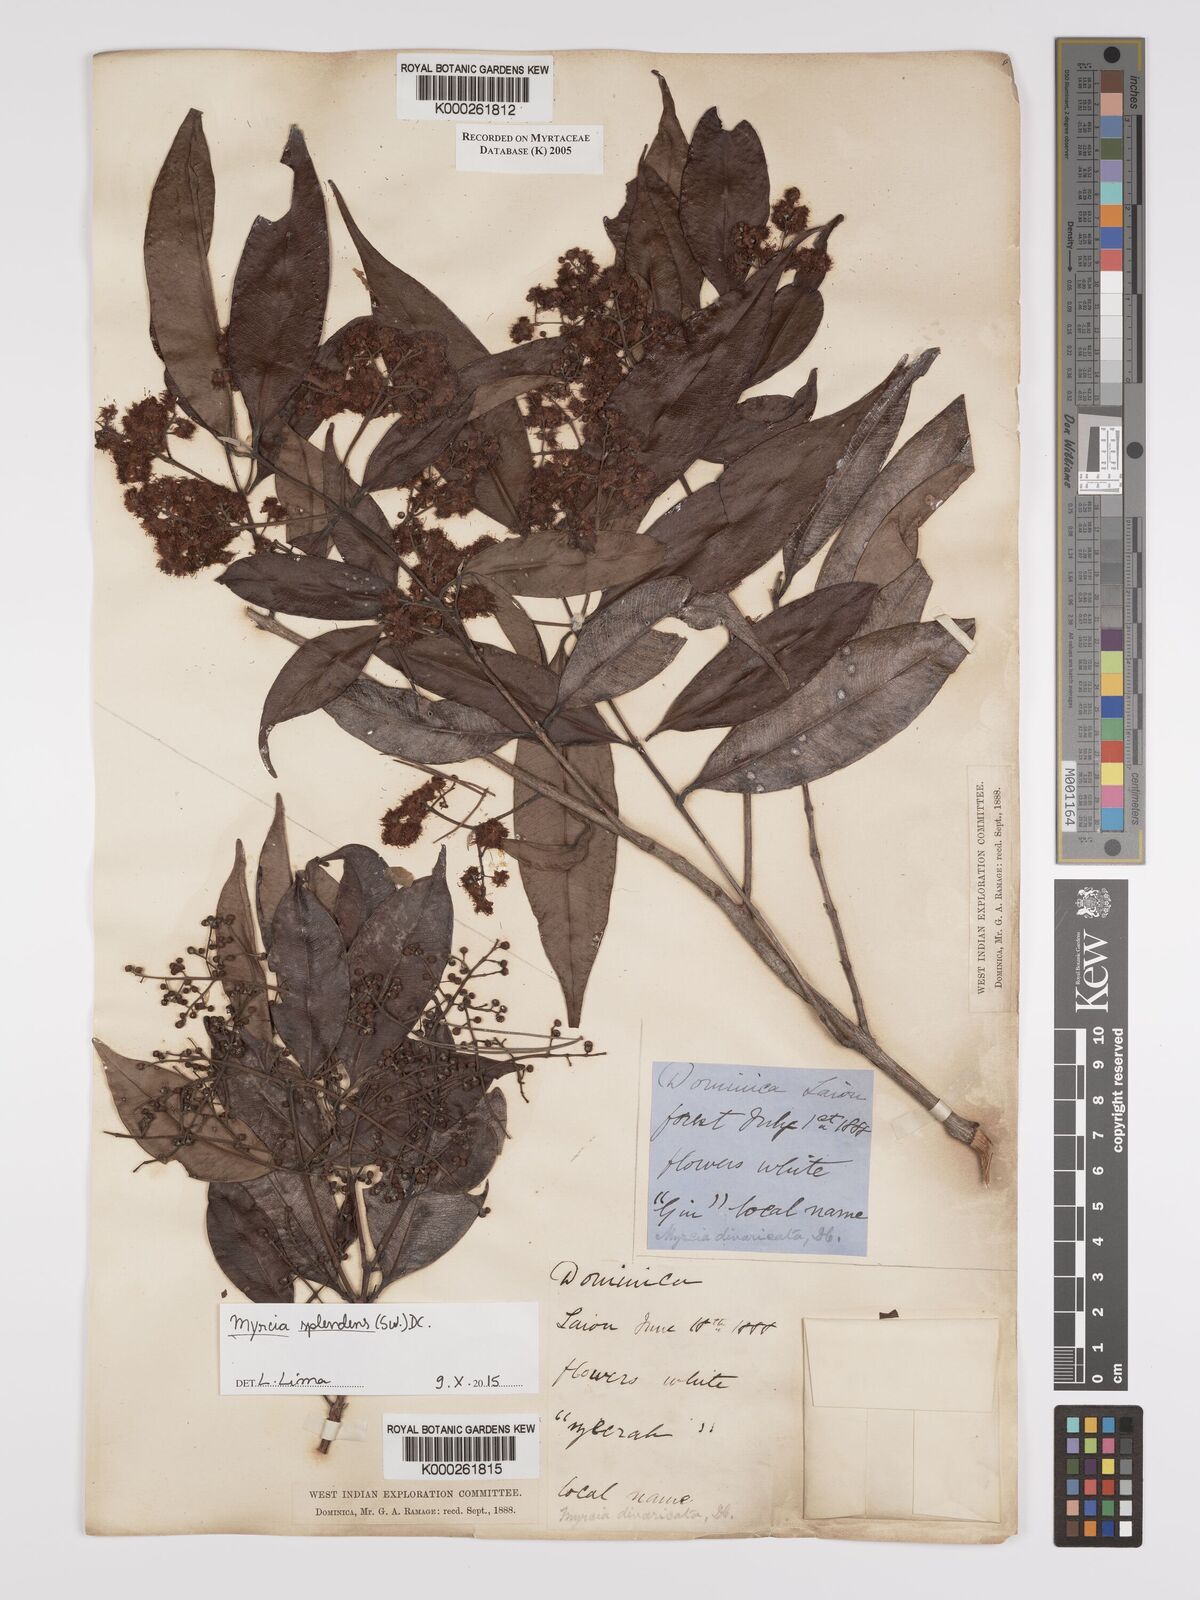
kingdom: Plantae
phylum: Tracheophyta
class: Magnoliopsida
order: Myrtales
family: Myrtaceae
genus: Myrcia
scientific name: Myrcia splendens
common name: Surinam cherry
